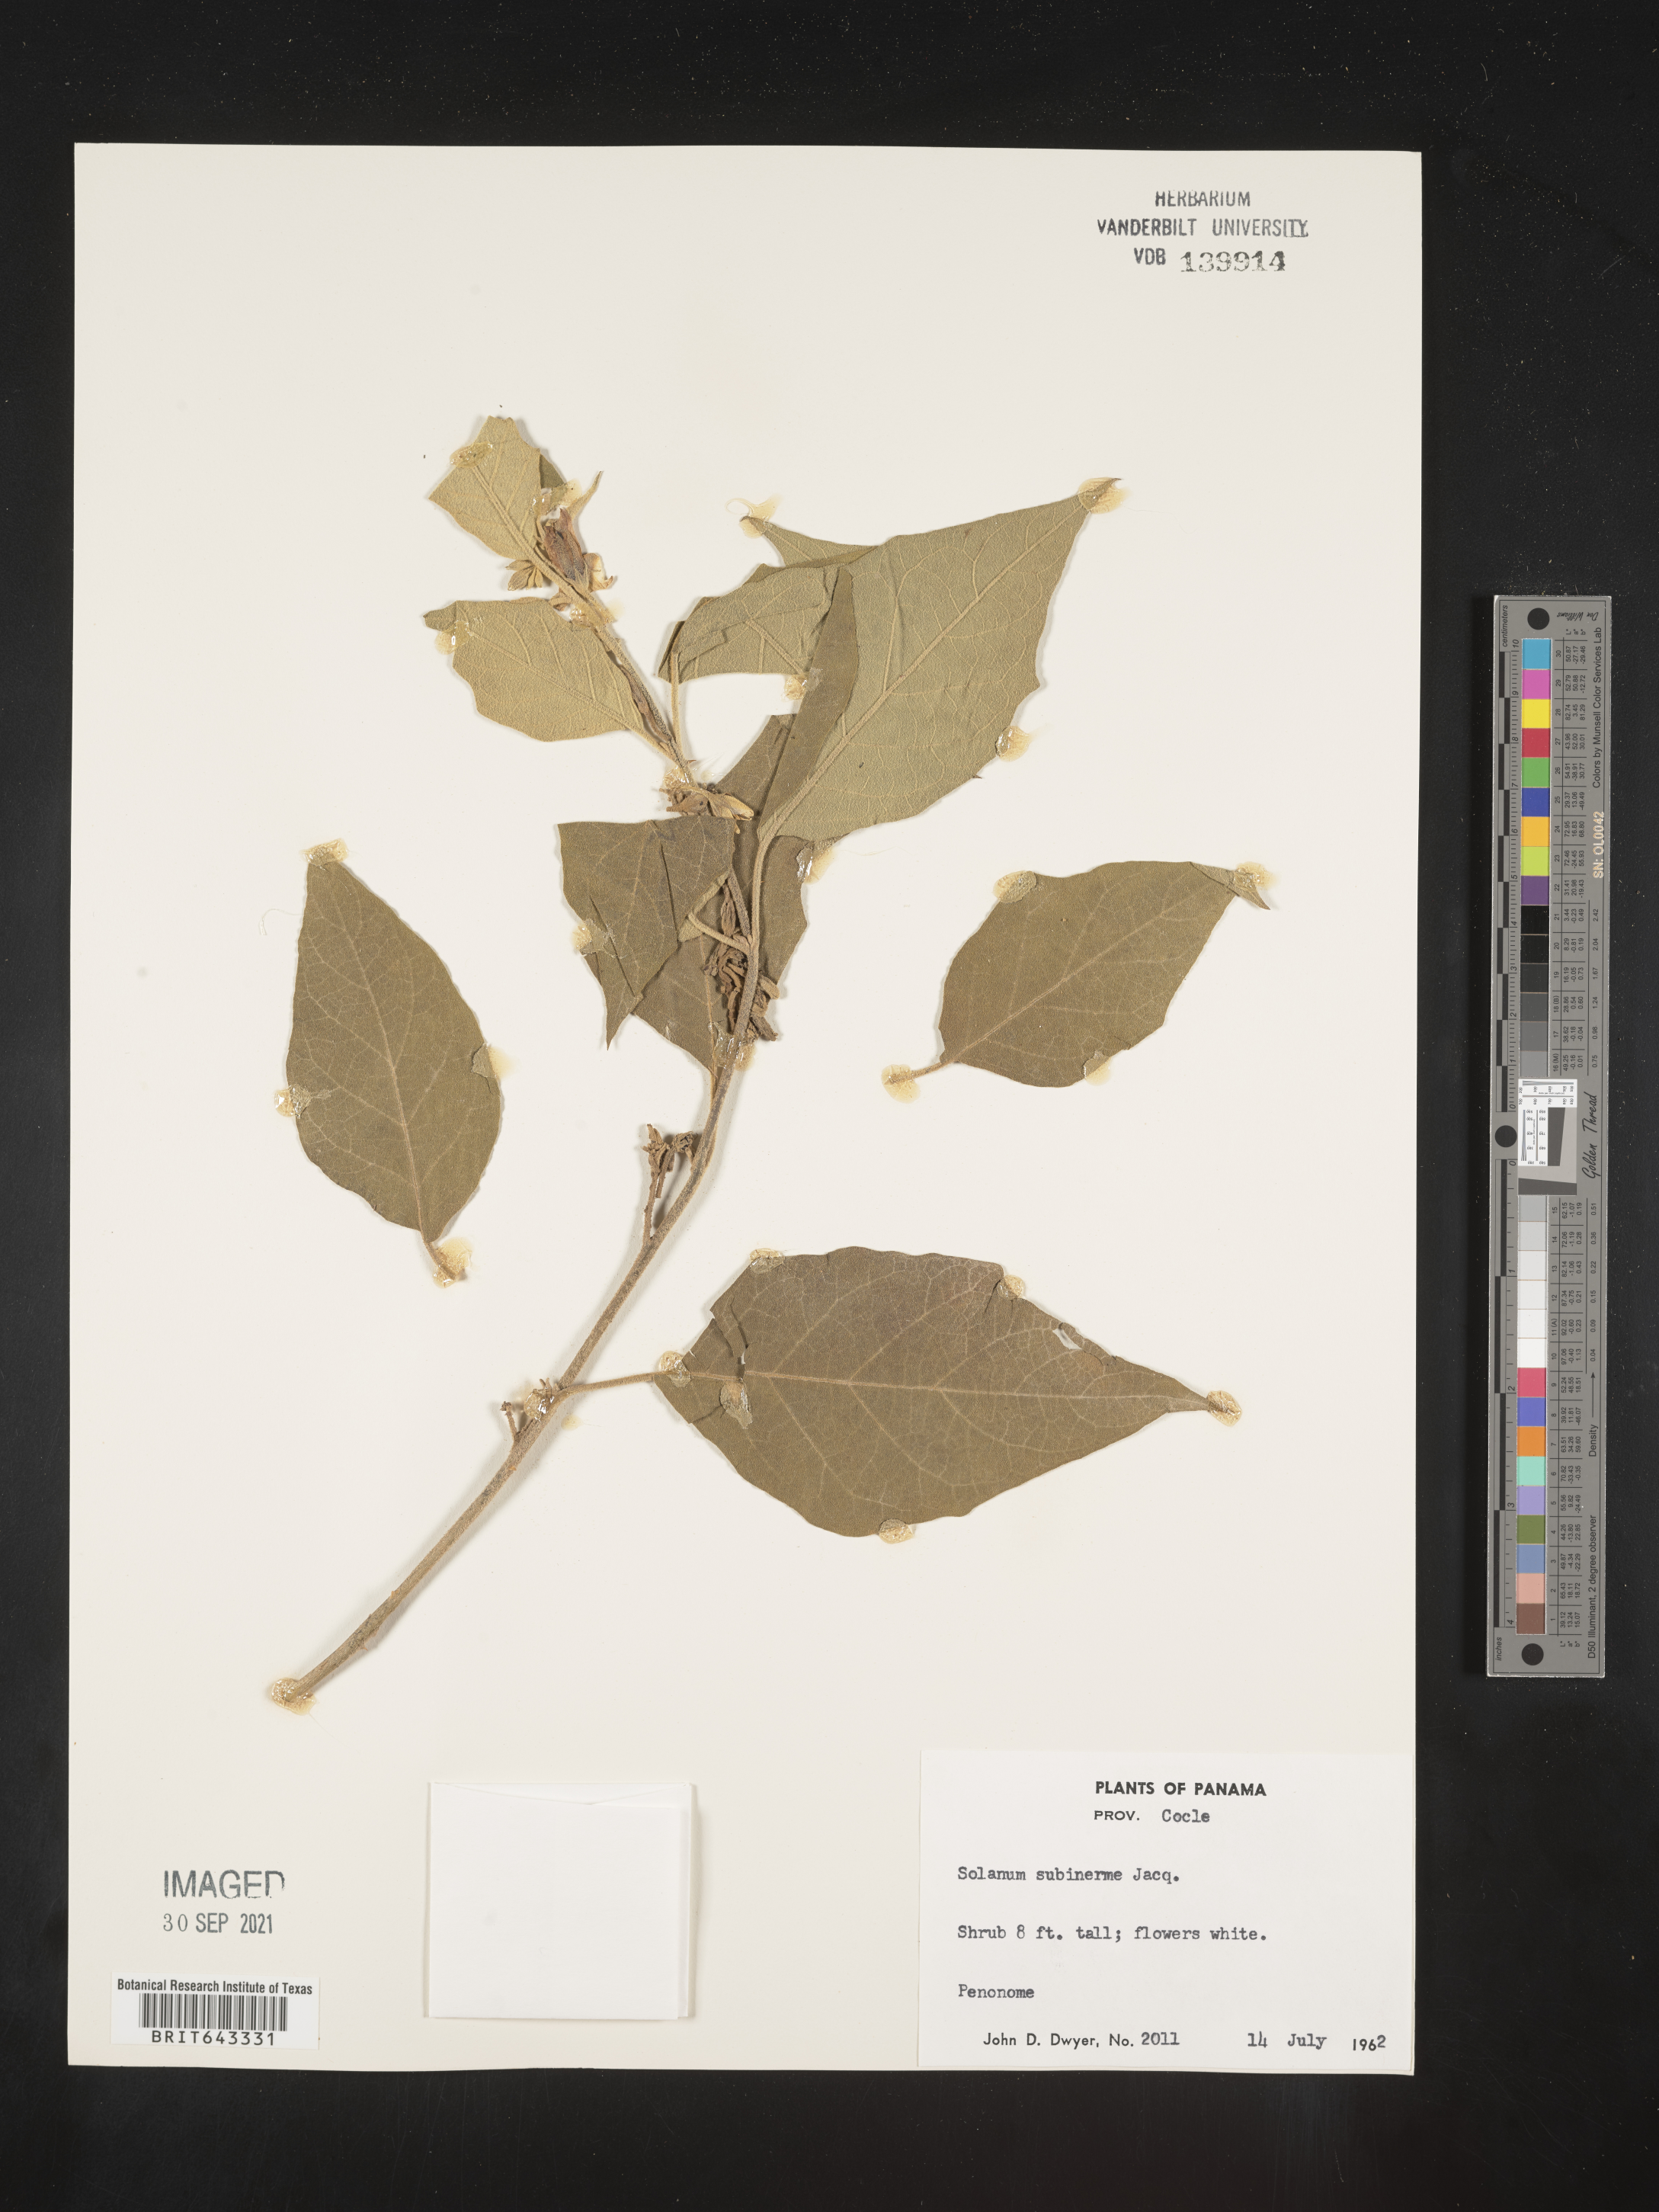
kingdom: Plantae
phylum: Tracheophyta
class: Magnoliopsida
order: Solanales
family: Solanaceae
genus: Solanum
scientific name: Solanum
